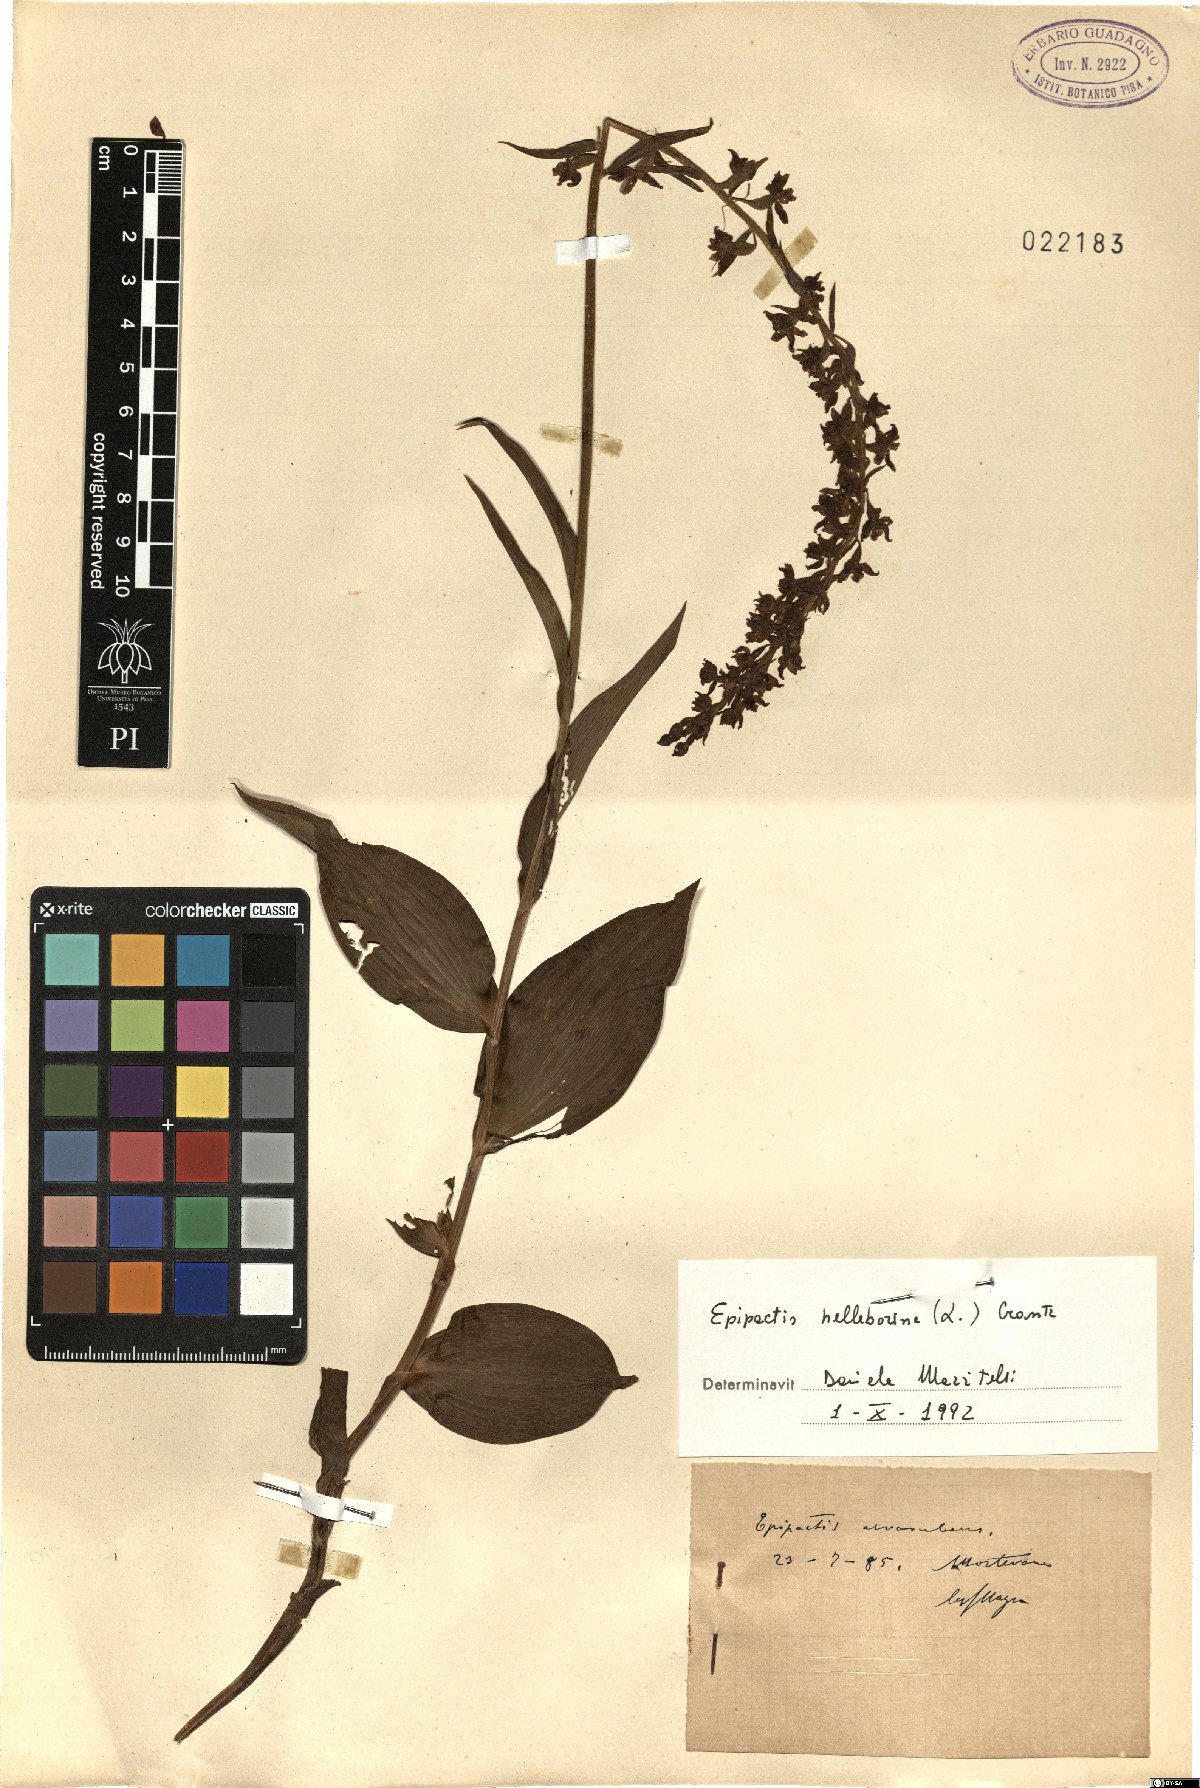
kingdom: Plantae
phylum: Tracheophyta
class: Liliopsida
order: Asparagales
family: Orchidaceae
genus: Epipactis
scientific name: Epipactis helleborine
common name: Broad-leaved helleborine
